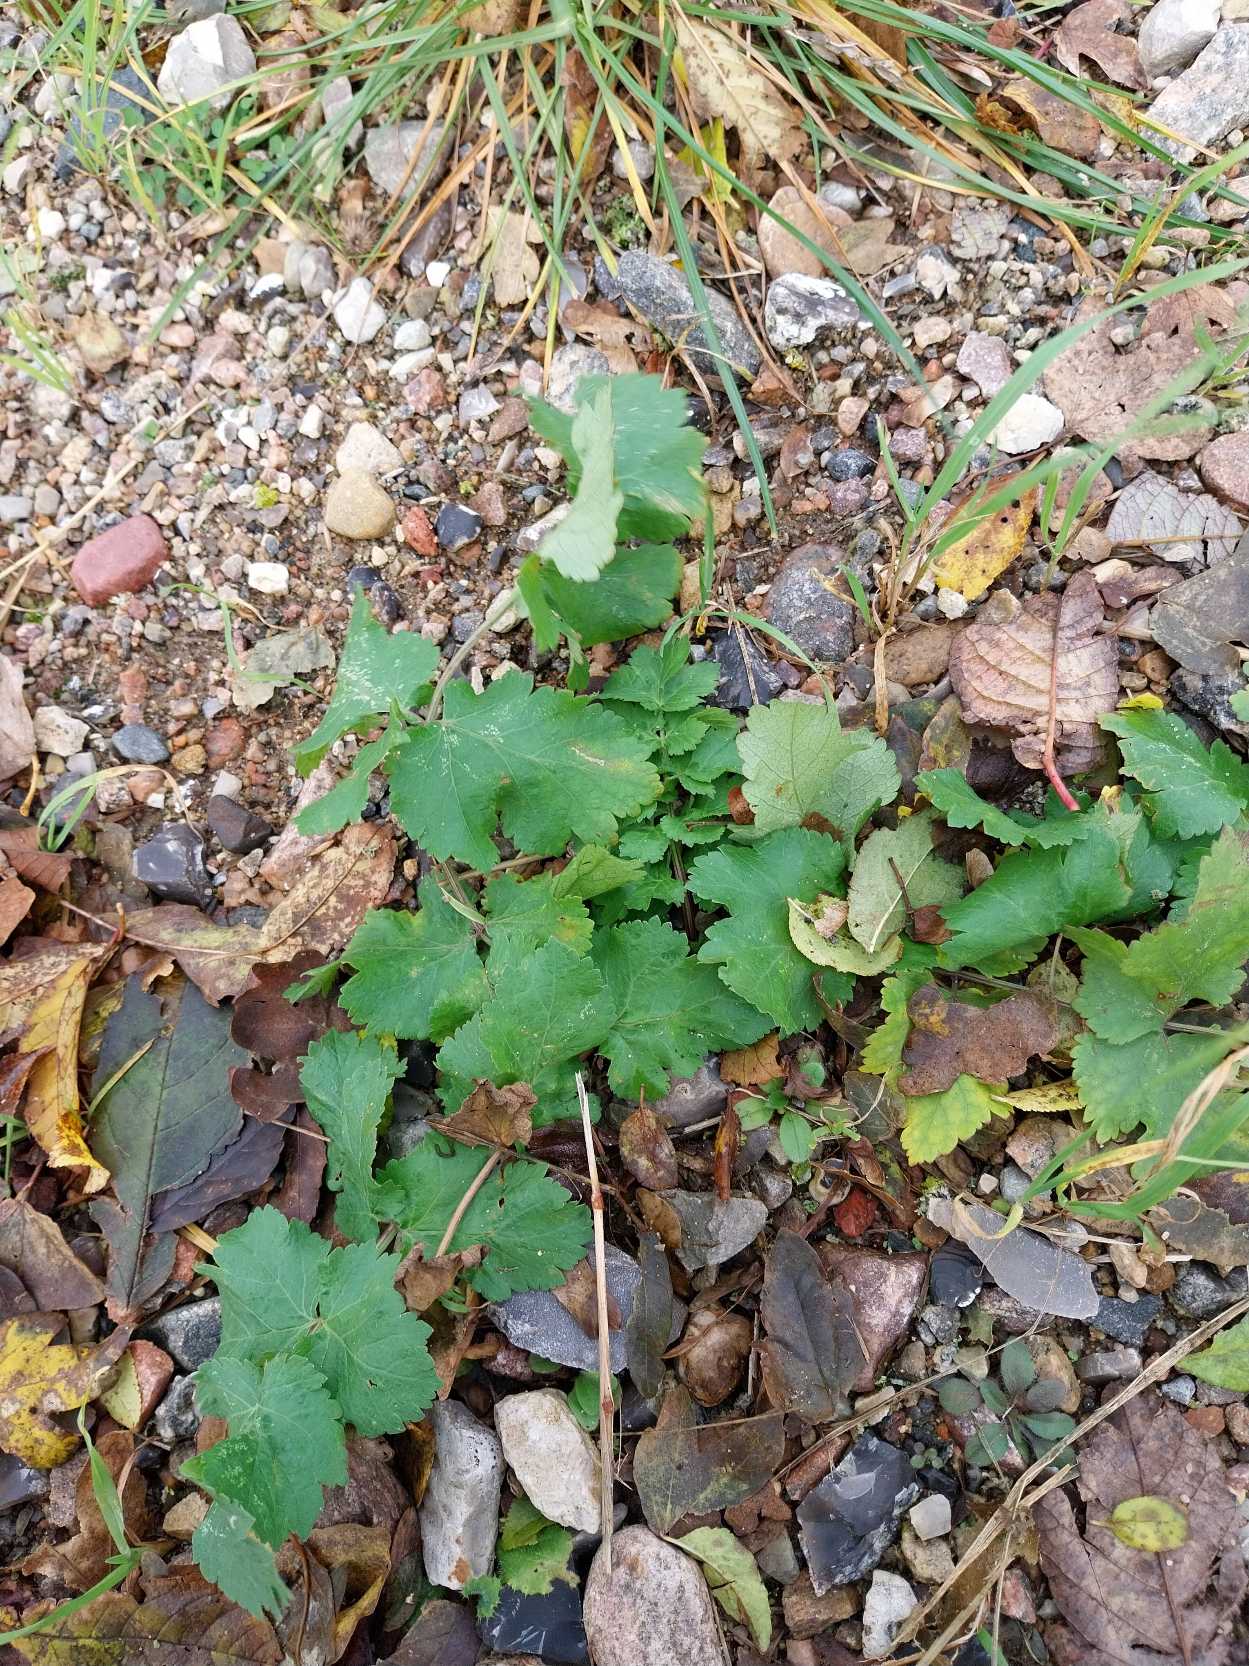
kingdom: Plantae
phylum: Tracheophyta
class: Magnoliopsida
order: Apiales
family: Apiaceae
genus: Pastinaca
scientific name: Pastinaca sativa
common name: Pastinak
